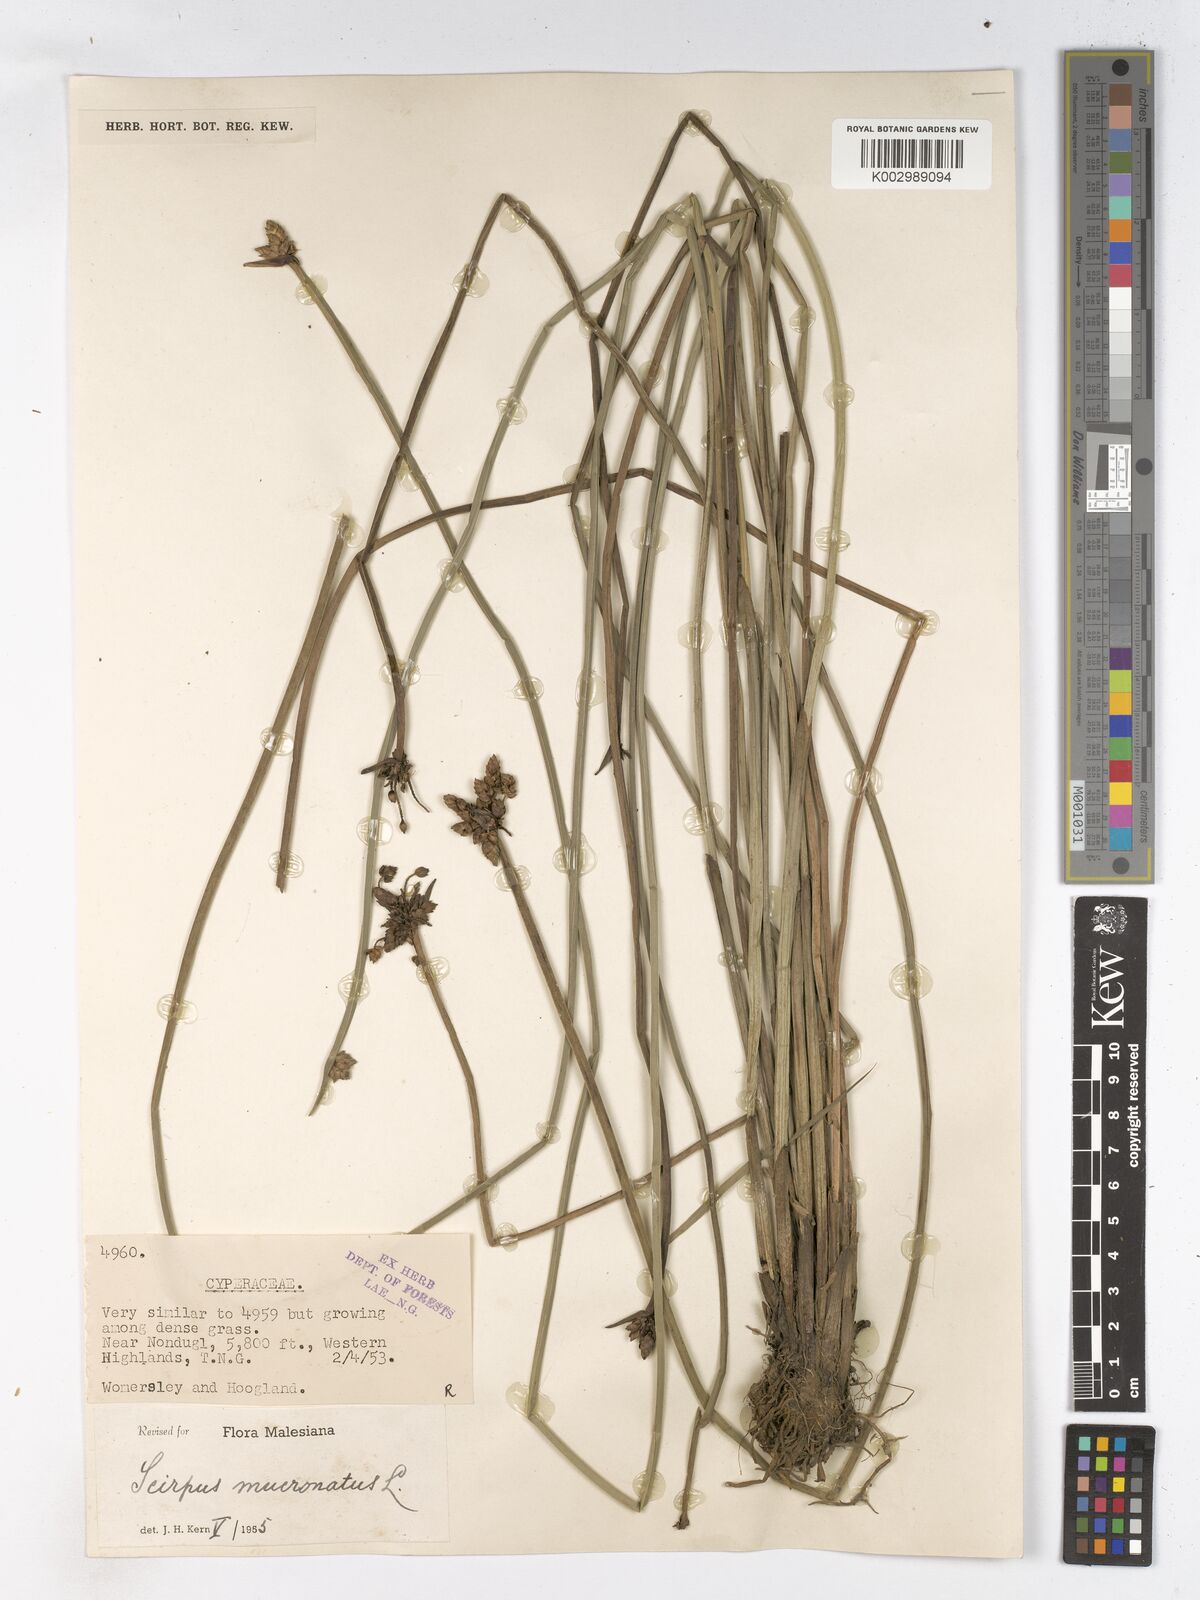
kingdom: Plantae
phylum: Tracheophyta
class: Liliopsida
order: Poales
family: Cyperaceae
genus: Schoenoplectiella
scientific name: Schoenoplectiella mucronata
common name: Bog bulrush
